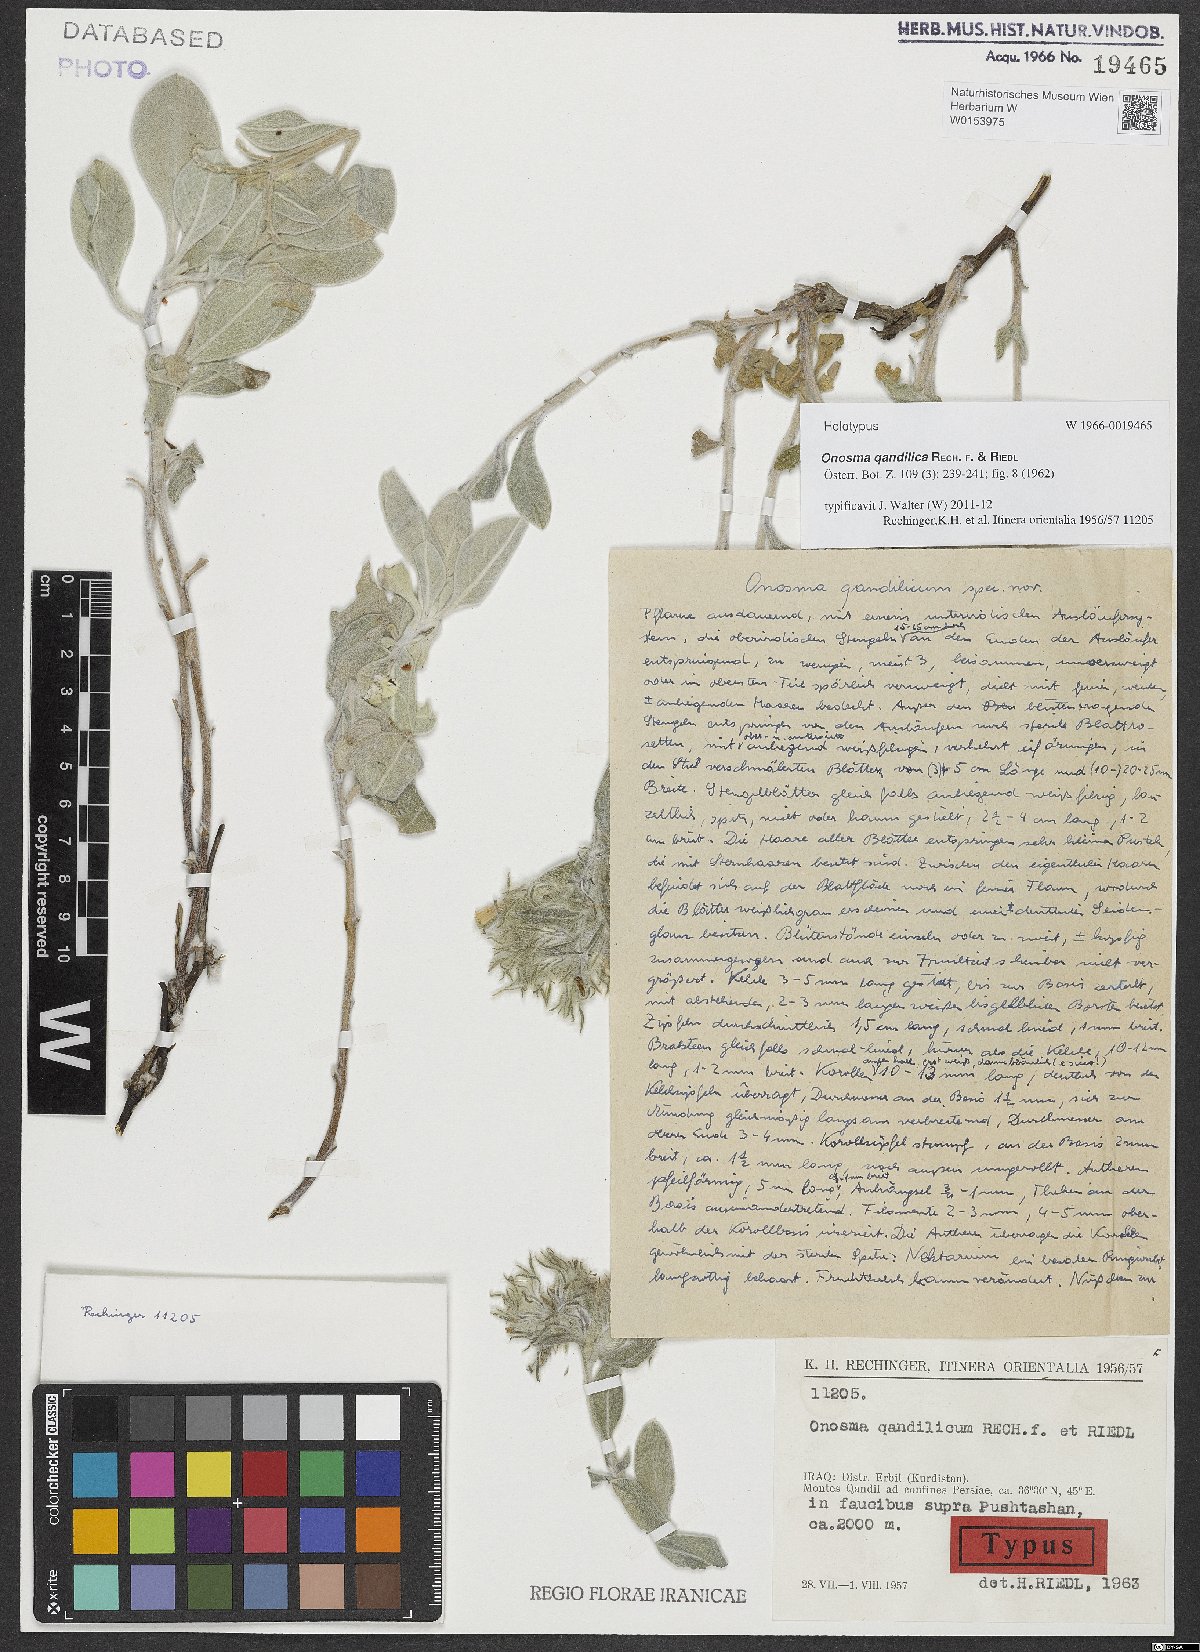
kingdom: Plantae
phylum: Tracheophyta
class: Magnoliopsida
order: Boraginales
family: Boraginaceae
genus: Onosma
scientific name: Onosma qandilica
